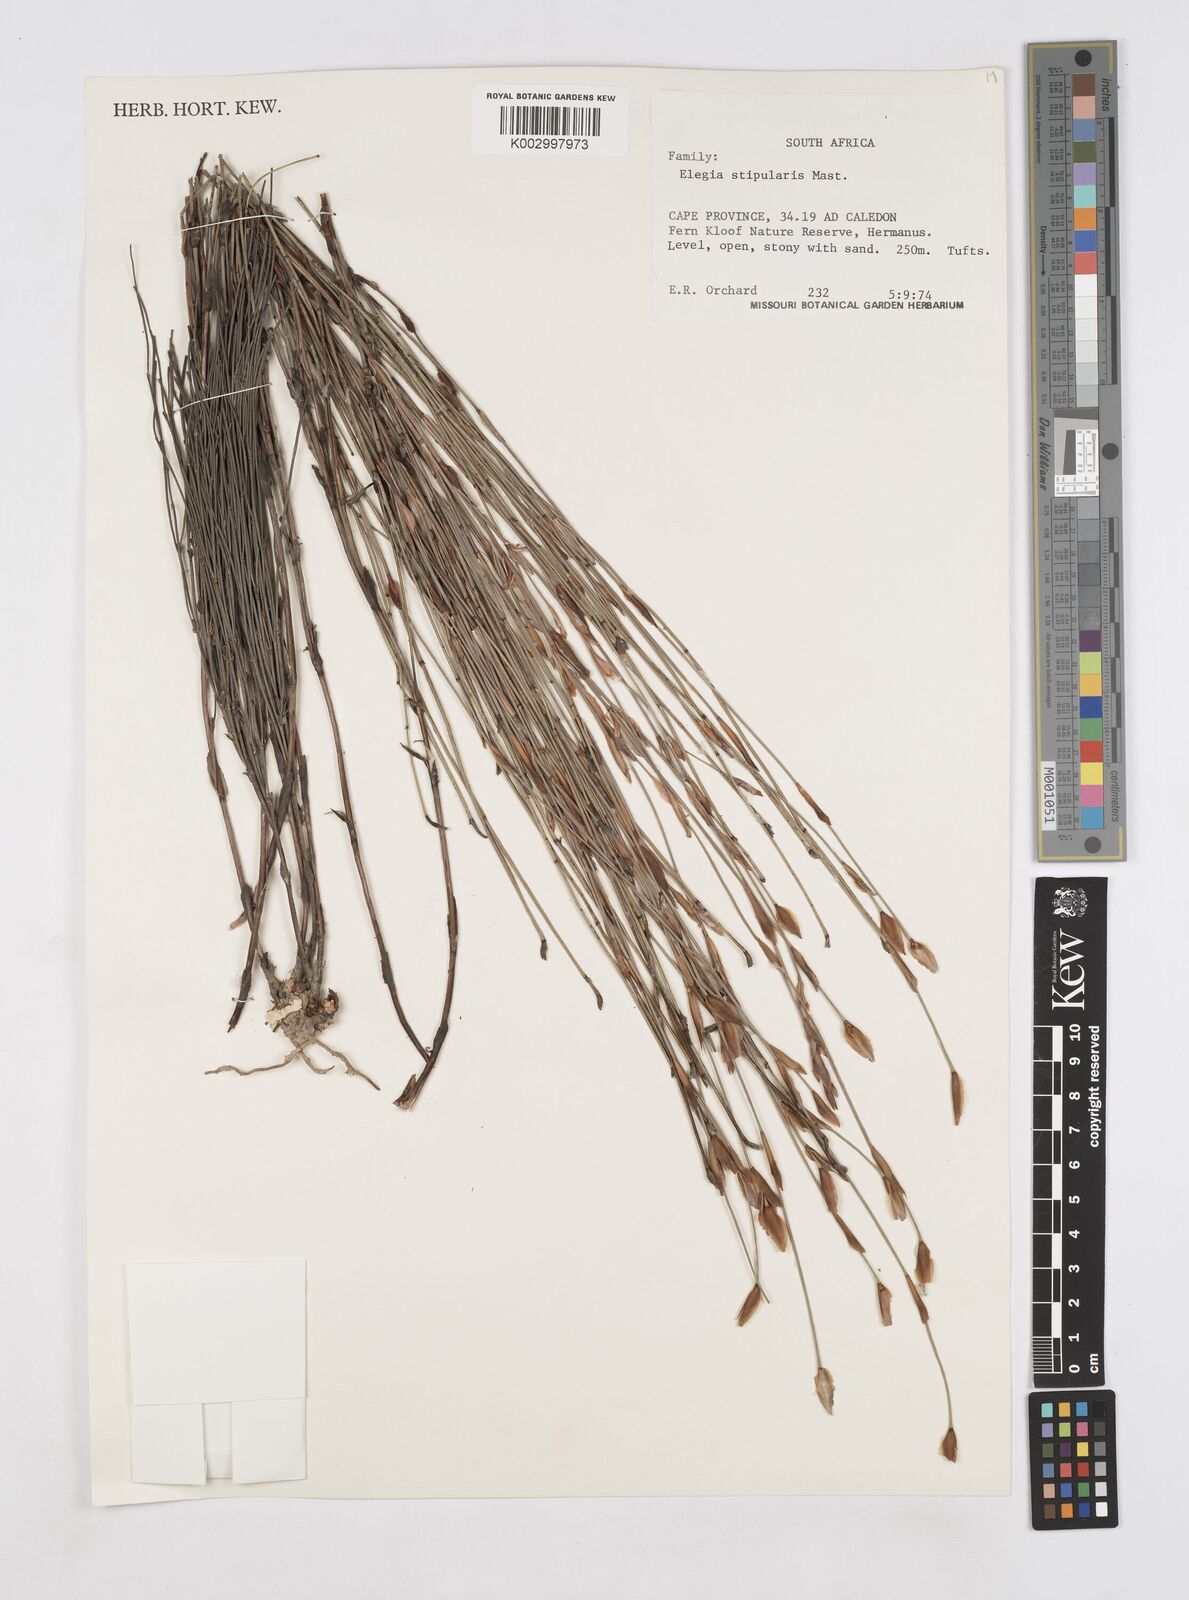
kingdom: Plantae
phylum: Tracheophyta
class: Liliopsida
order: Poales
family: Restionaceae
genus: Elegia
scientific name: Elegia stipularis
